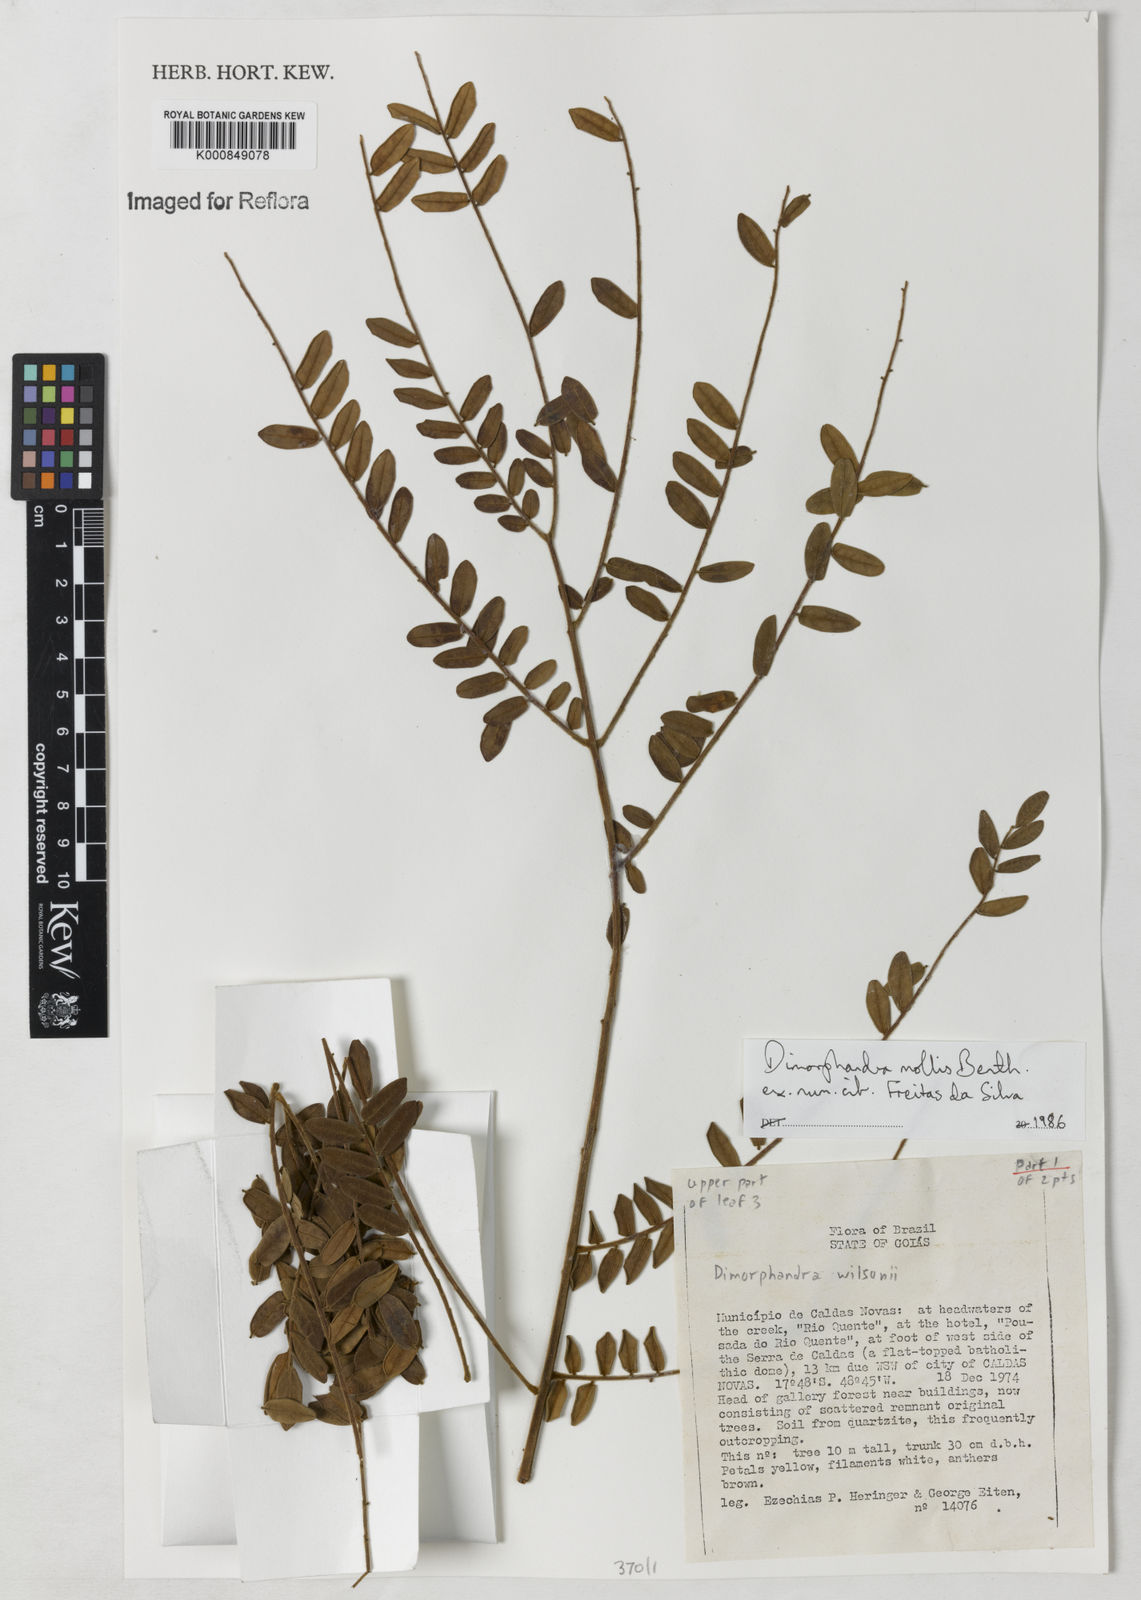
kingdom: Plantae
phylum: Tracheophyta
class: Magnoliopsida
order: Fabales
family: Fabaceae
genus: Dimorphandra
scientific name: Dimorphandra mollis
